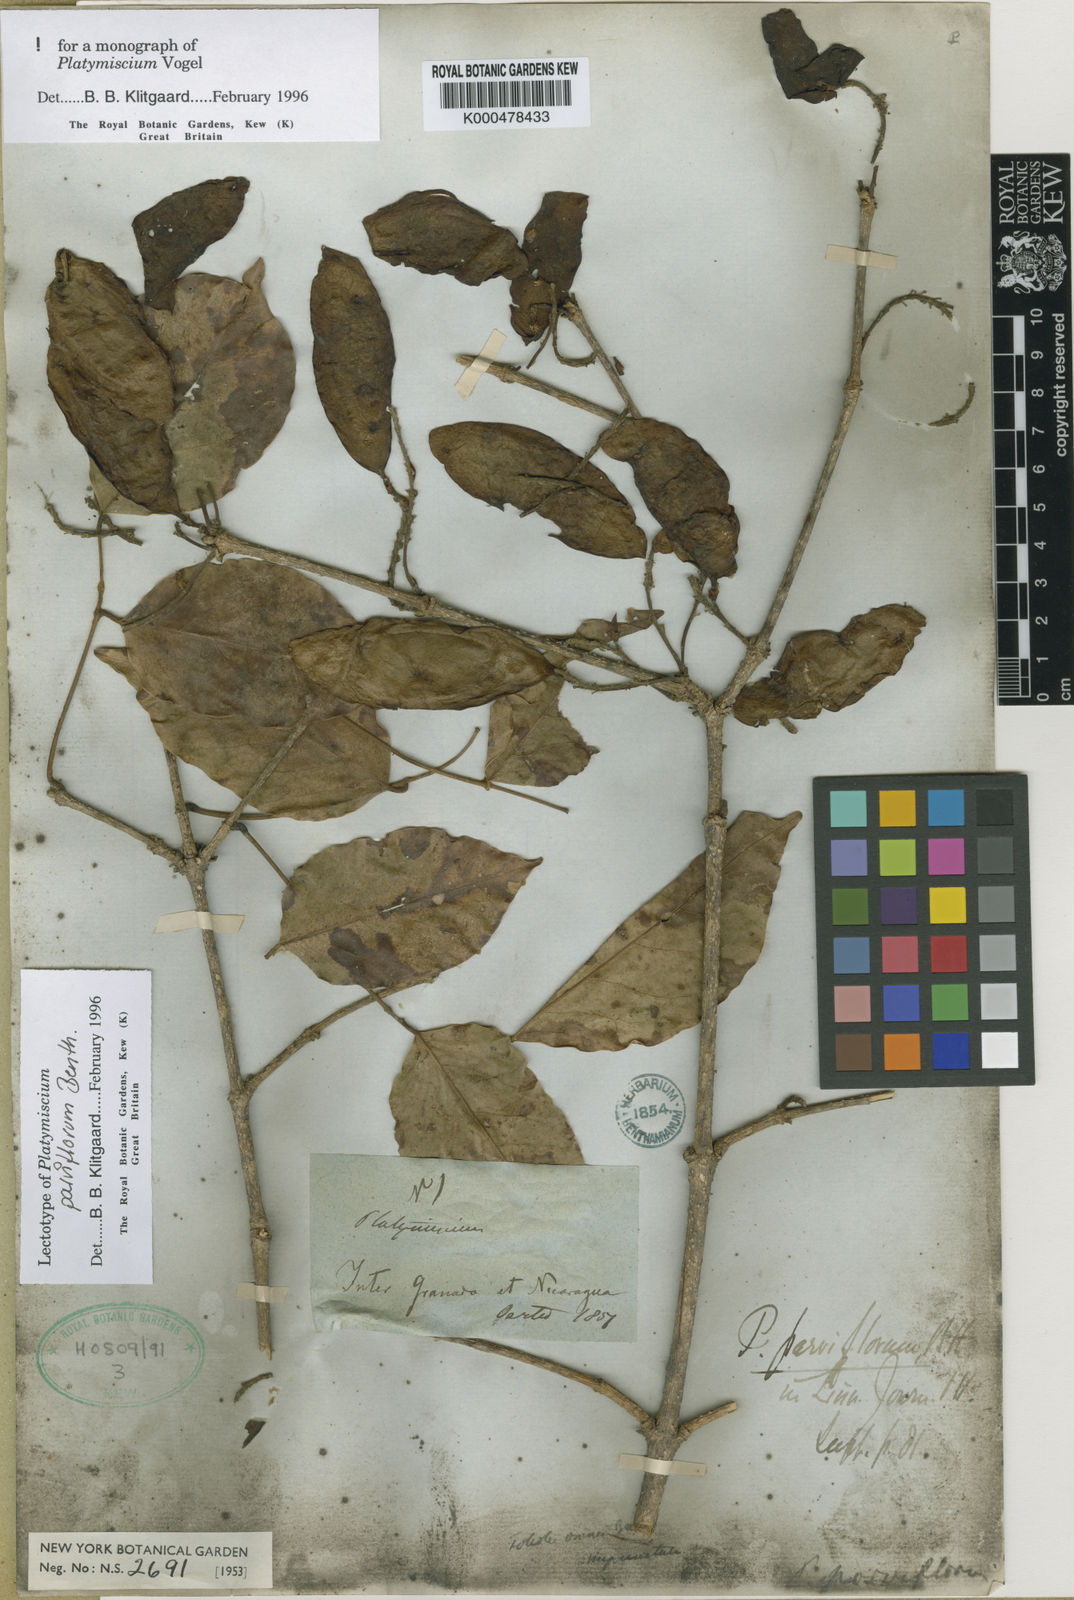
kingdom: Plantae
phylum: Tracheophyta
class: Magnoliopsida
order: Fabales
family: Fabaceae
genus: Platymiscium
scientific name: Platymiscium parviflorum
